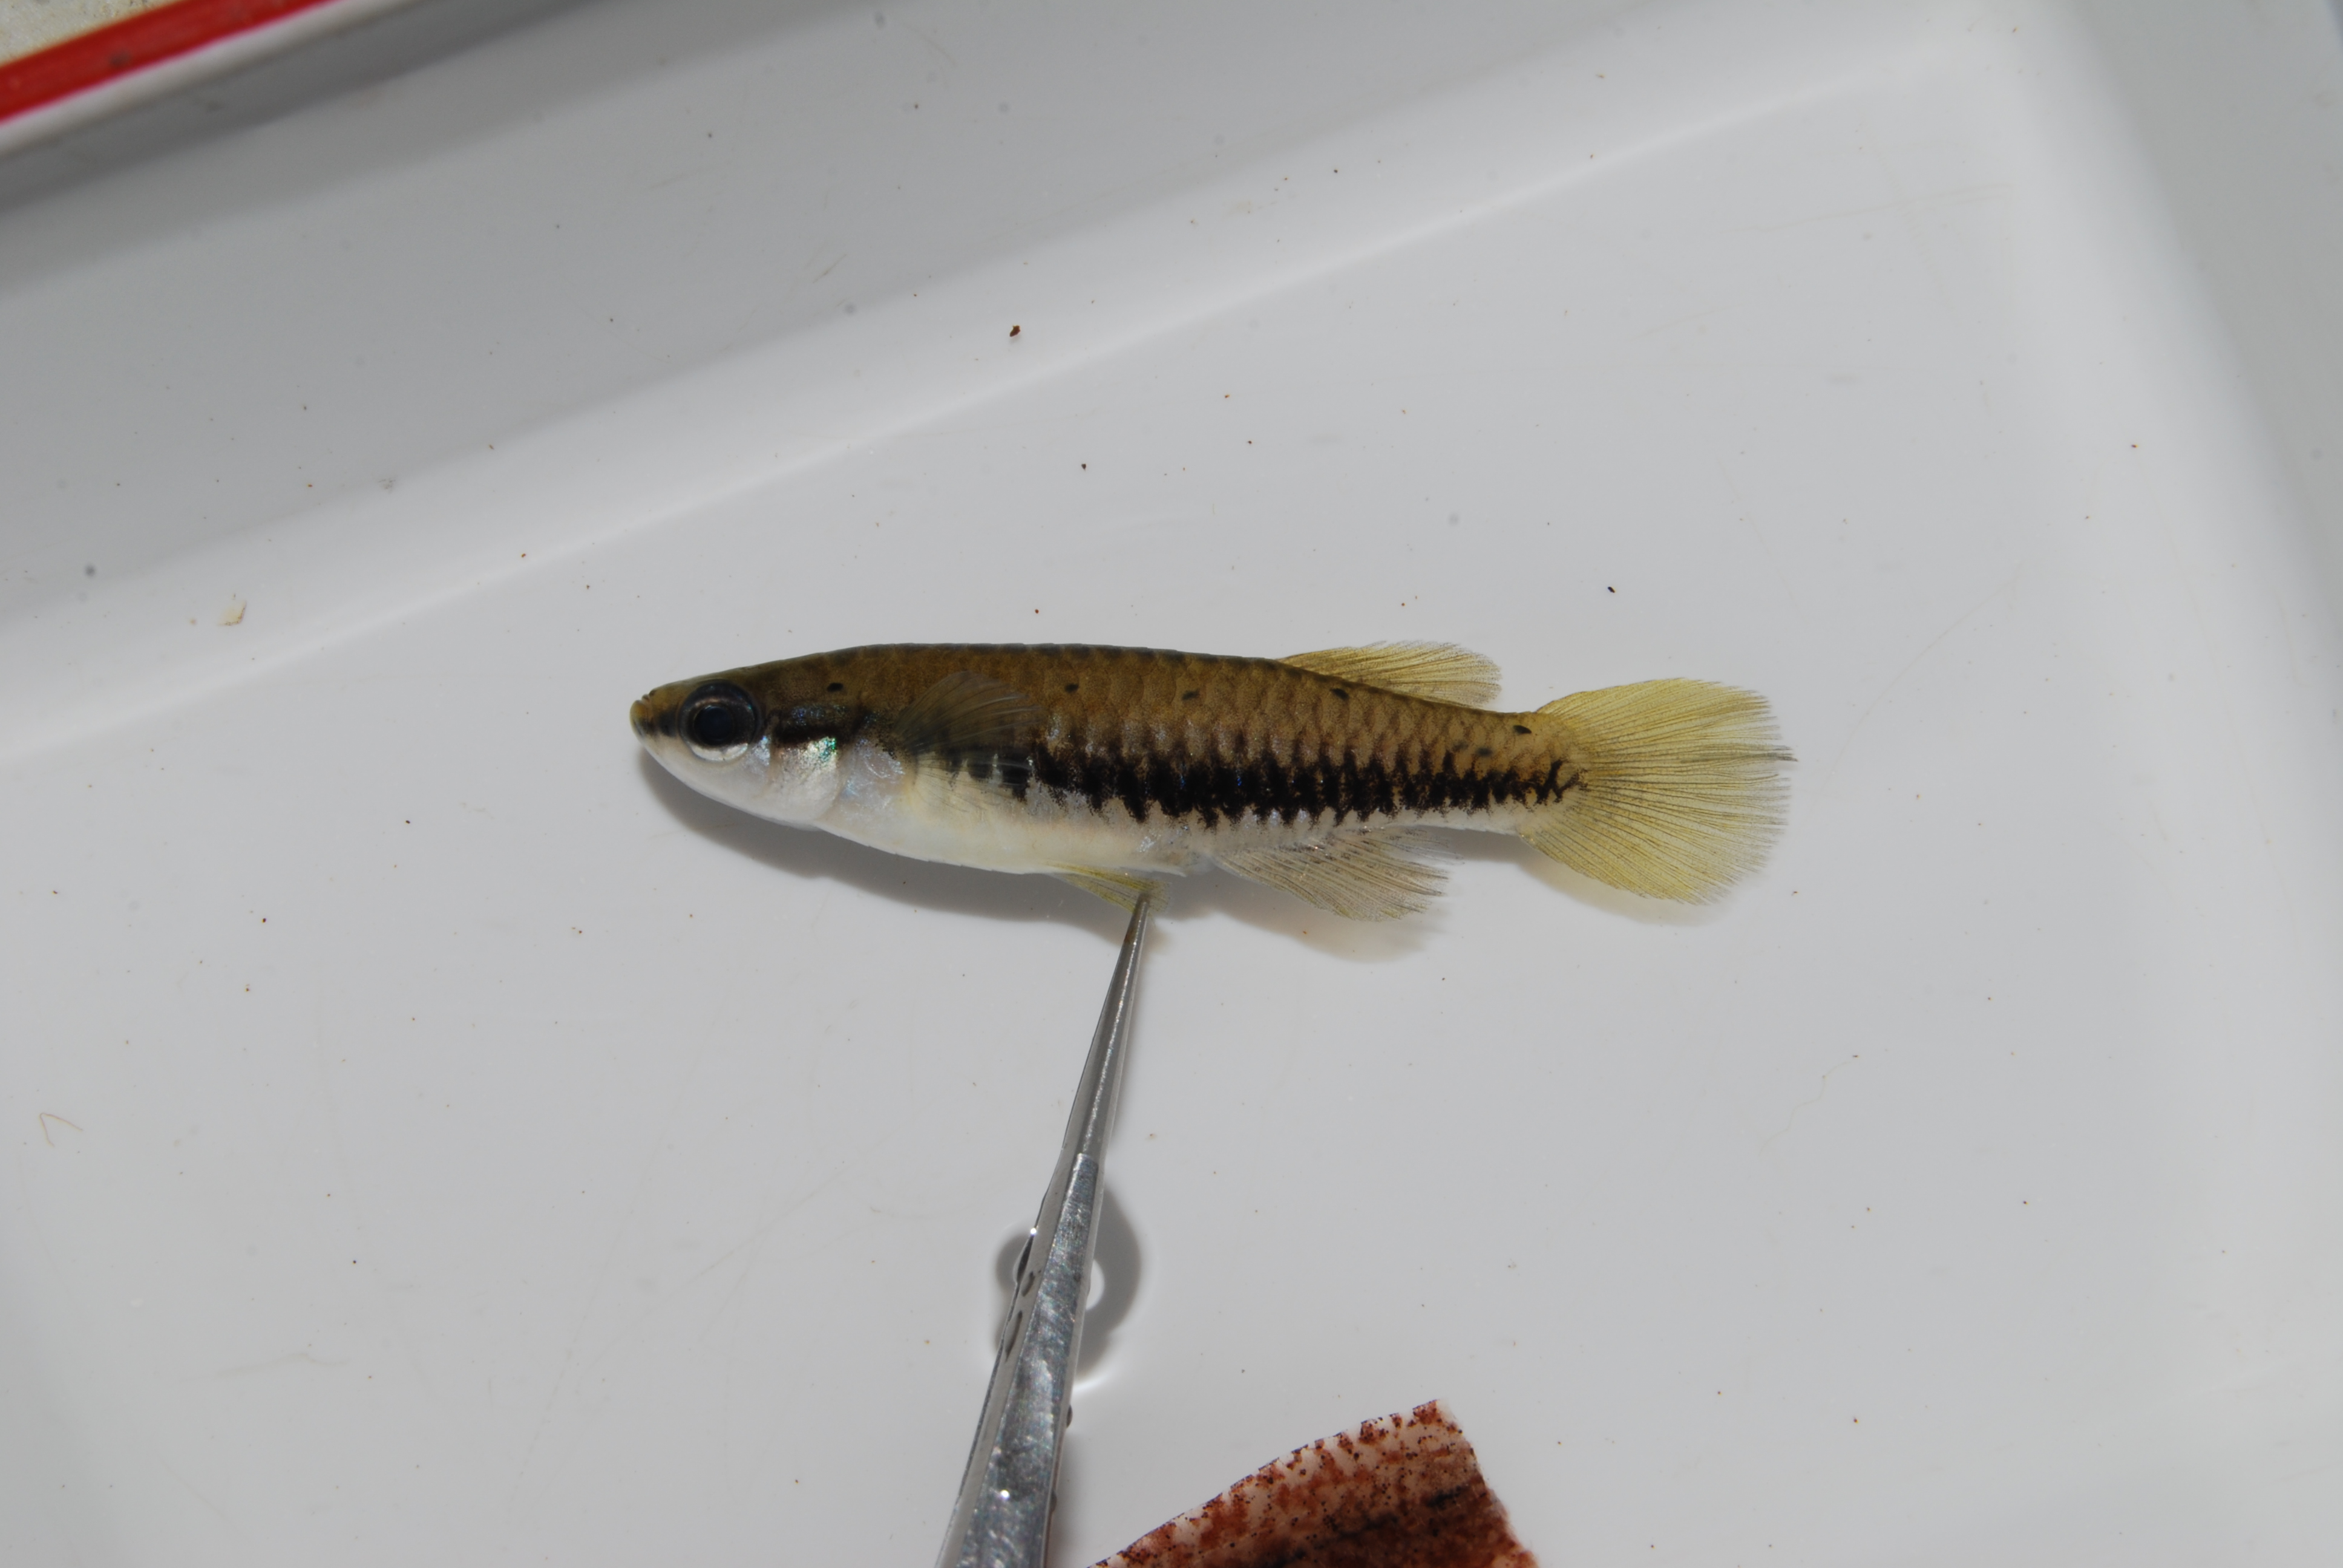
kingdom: Animalia
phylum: Chordata
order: Cyprinodontiformes
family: Poeciliidae
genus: Lacustricola
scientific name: Lacustricola katangae
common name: Striped topminnow
